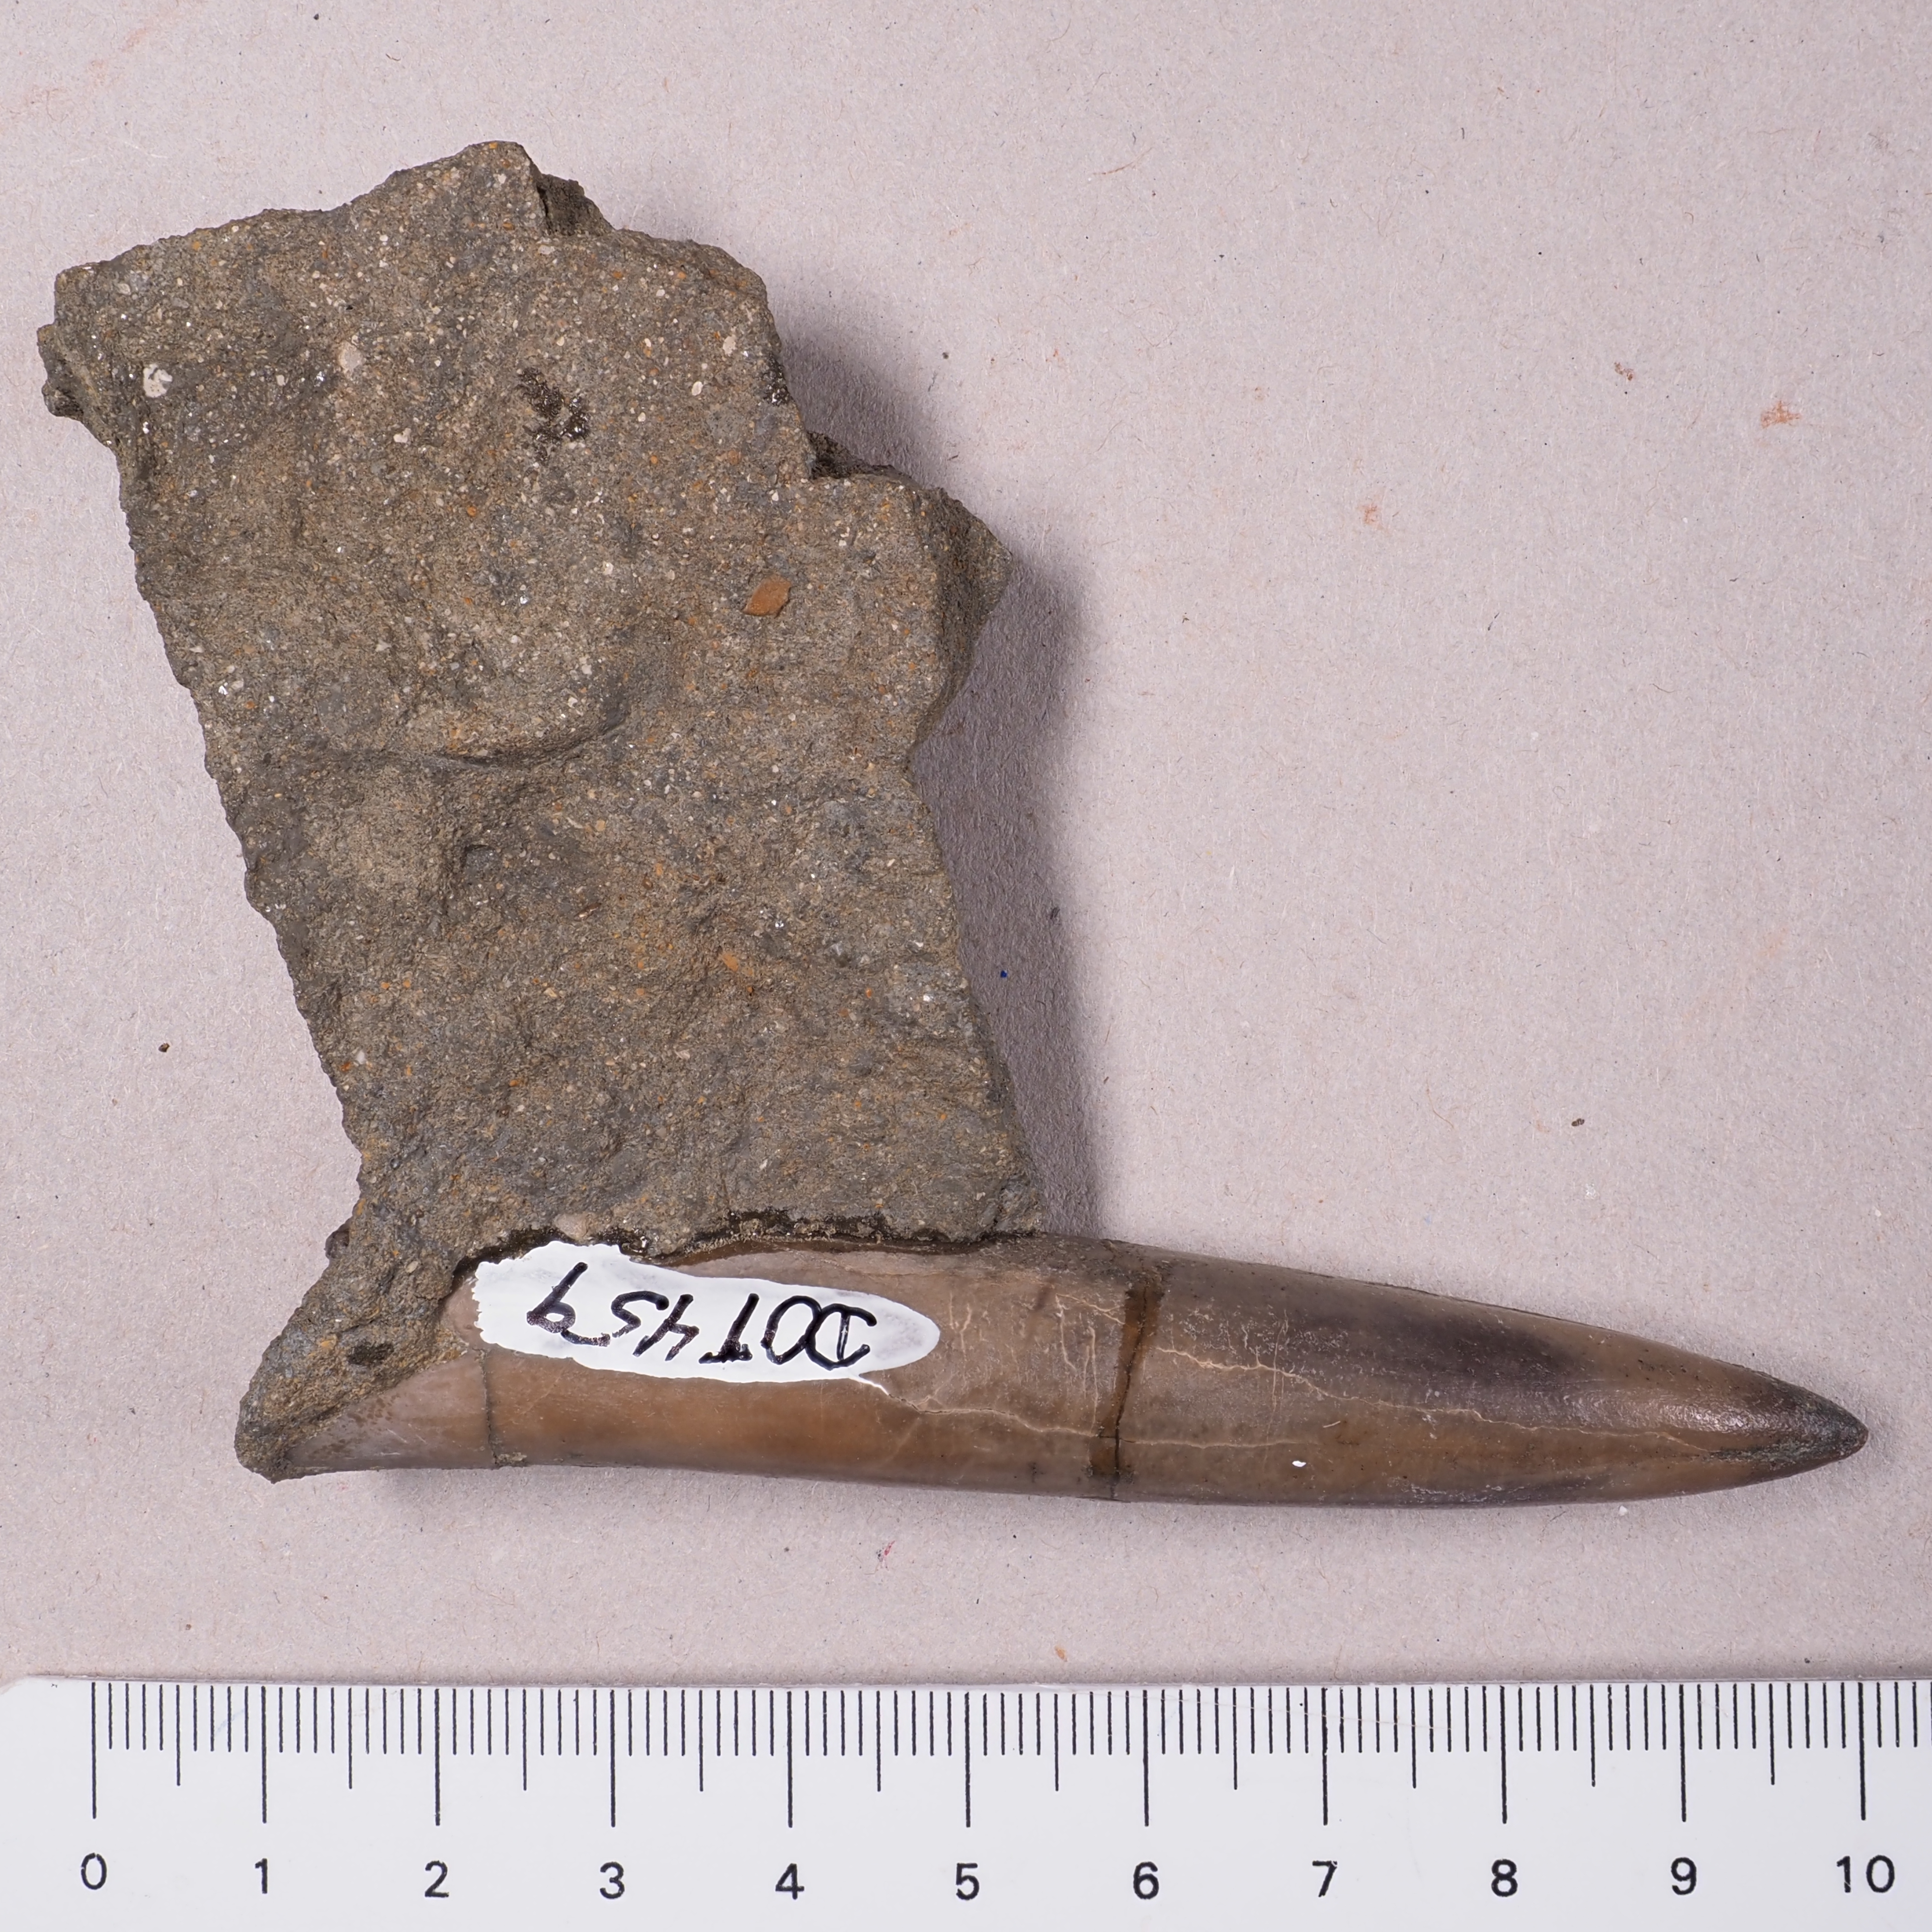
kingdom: Animalia
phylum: Mollusca
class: Cephalopoda
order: Belemnitida
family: Megateuthididae
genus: Acrocoelites
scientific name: Acrocoelites
